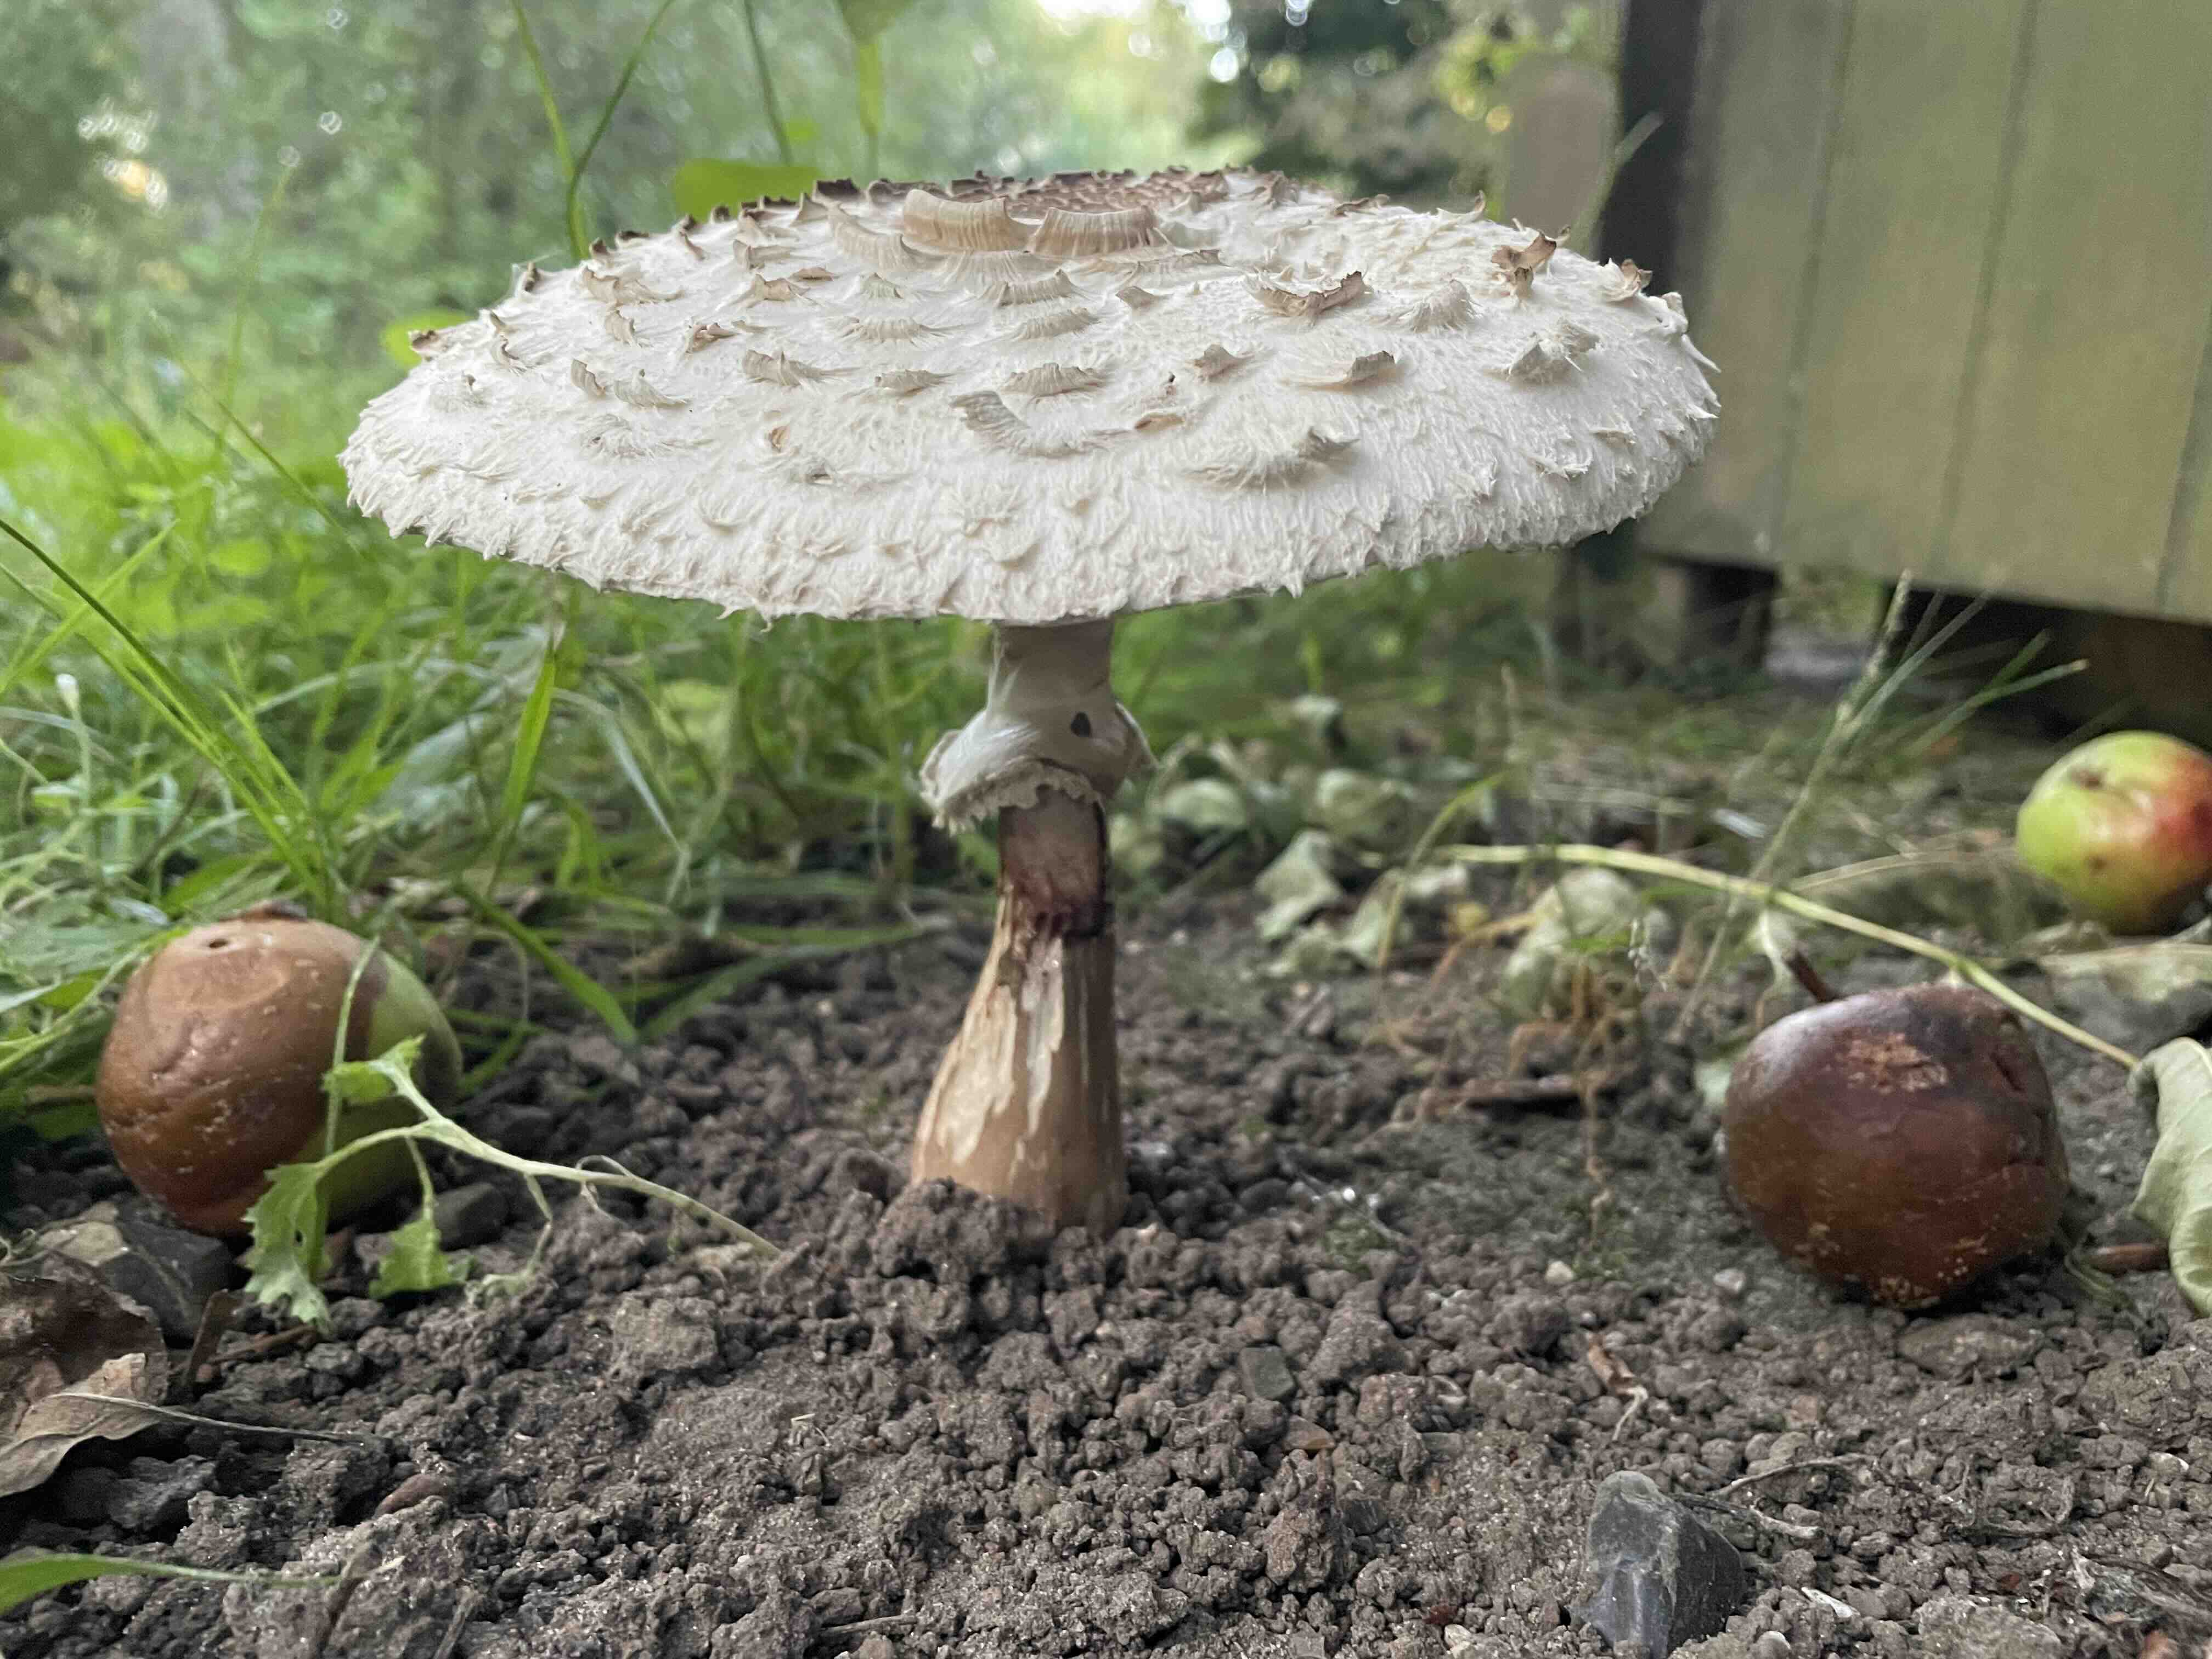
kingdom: Fungi
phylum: Basidiomycota
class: Agaricomycetes
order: Agaricales
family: Agaricaceae
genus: Chlorophyllum
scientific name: Chlorophyllum rhacodes
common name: ægte rabarberhat
